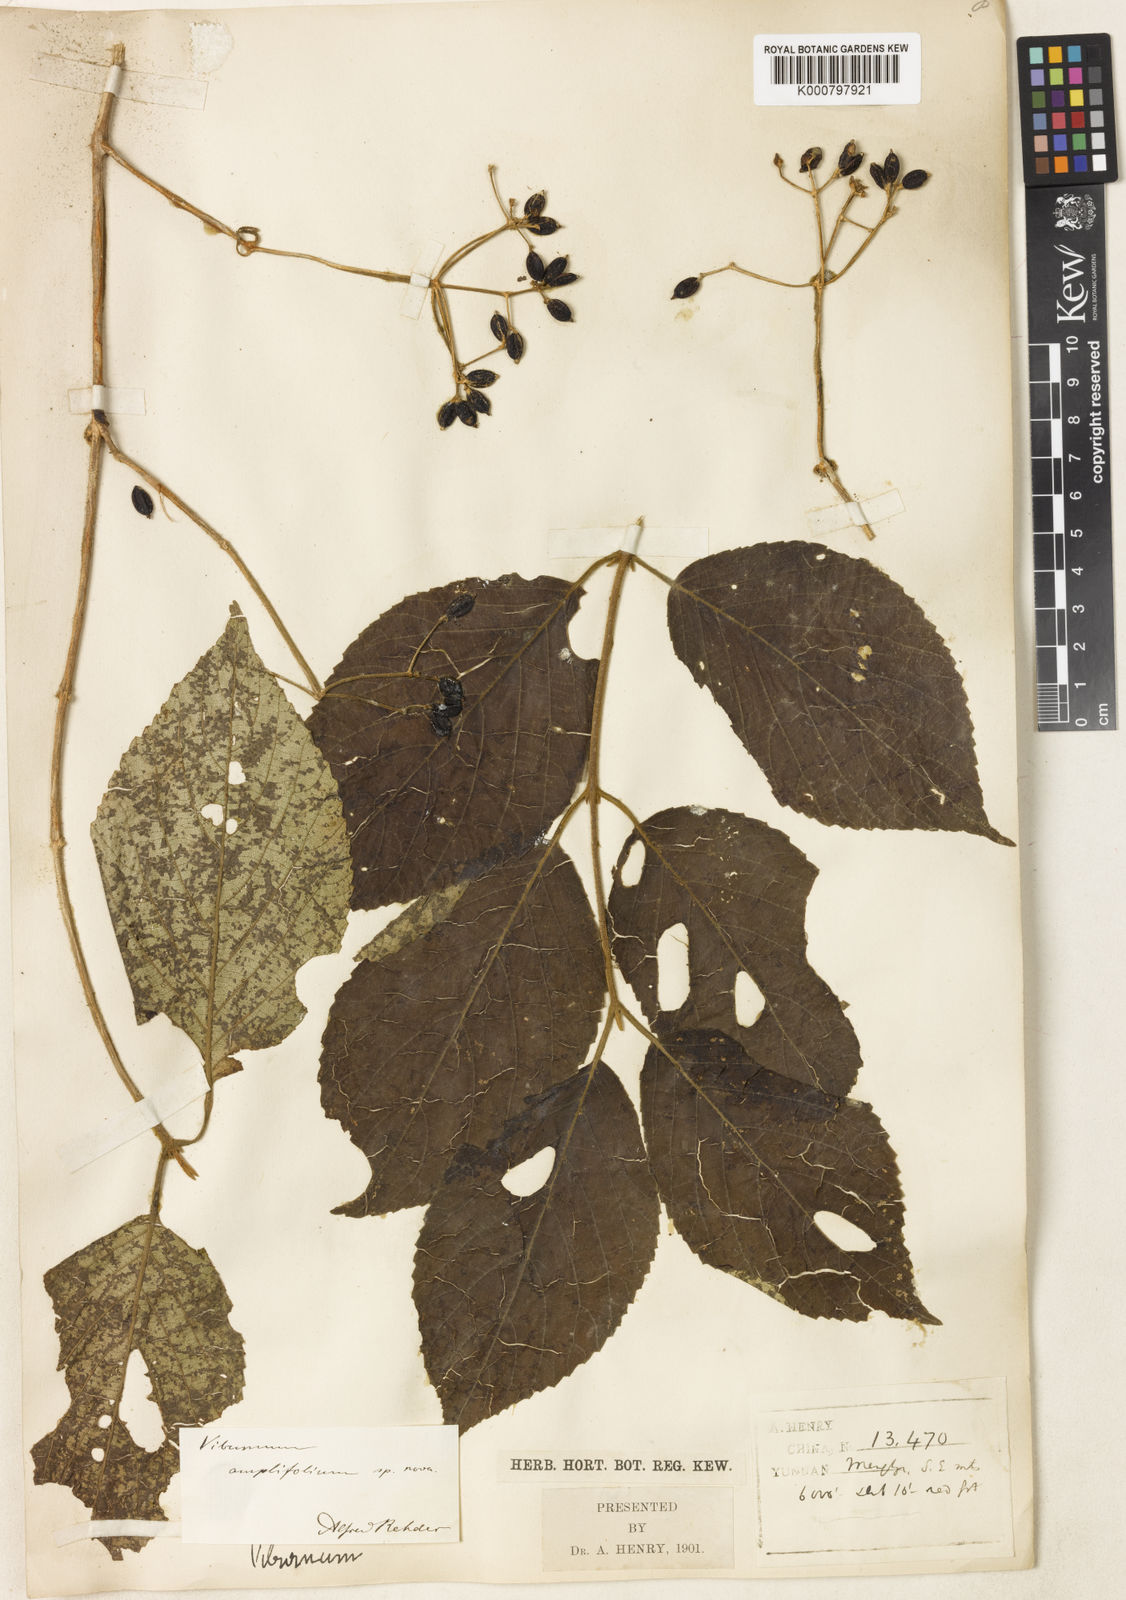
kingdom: Plantae
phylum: Tracheophyta
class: Magnoliopsida
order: Dipsacales
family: Viburnaceae
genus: Viburnum
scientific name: Viburnum amplifolium
